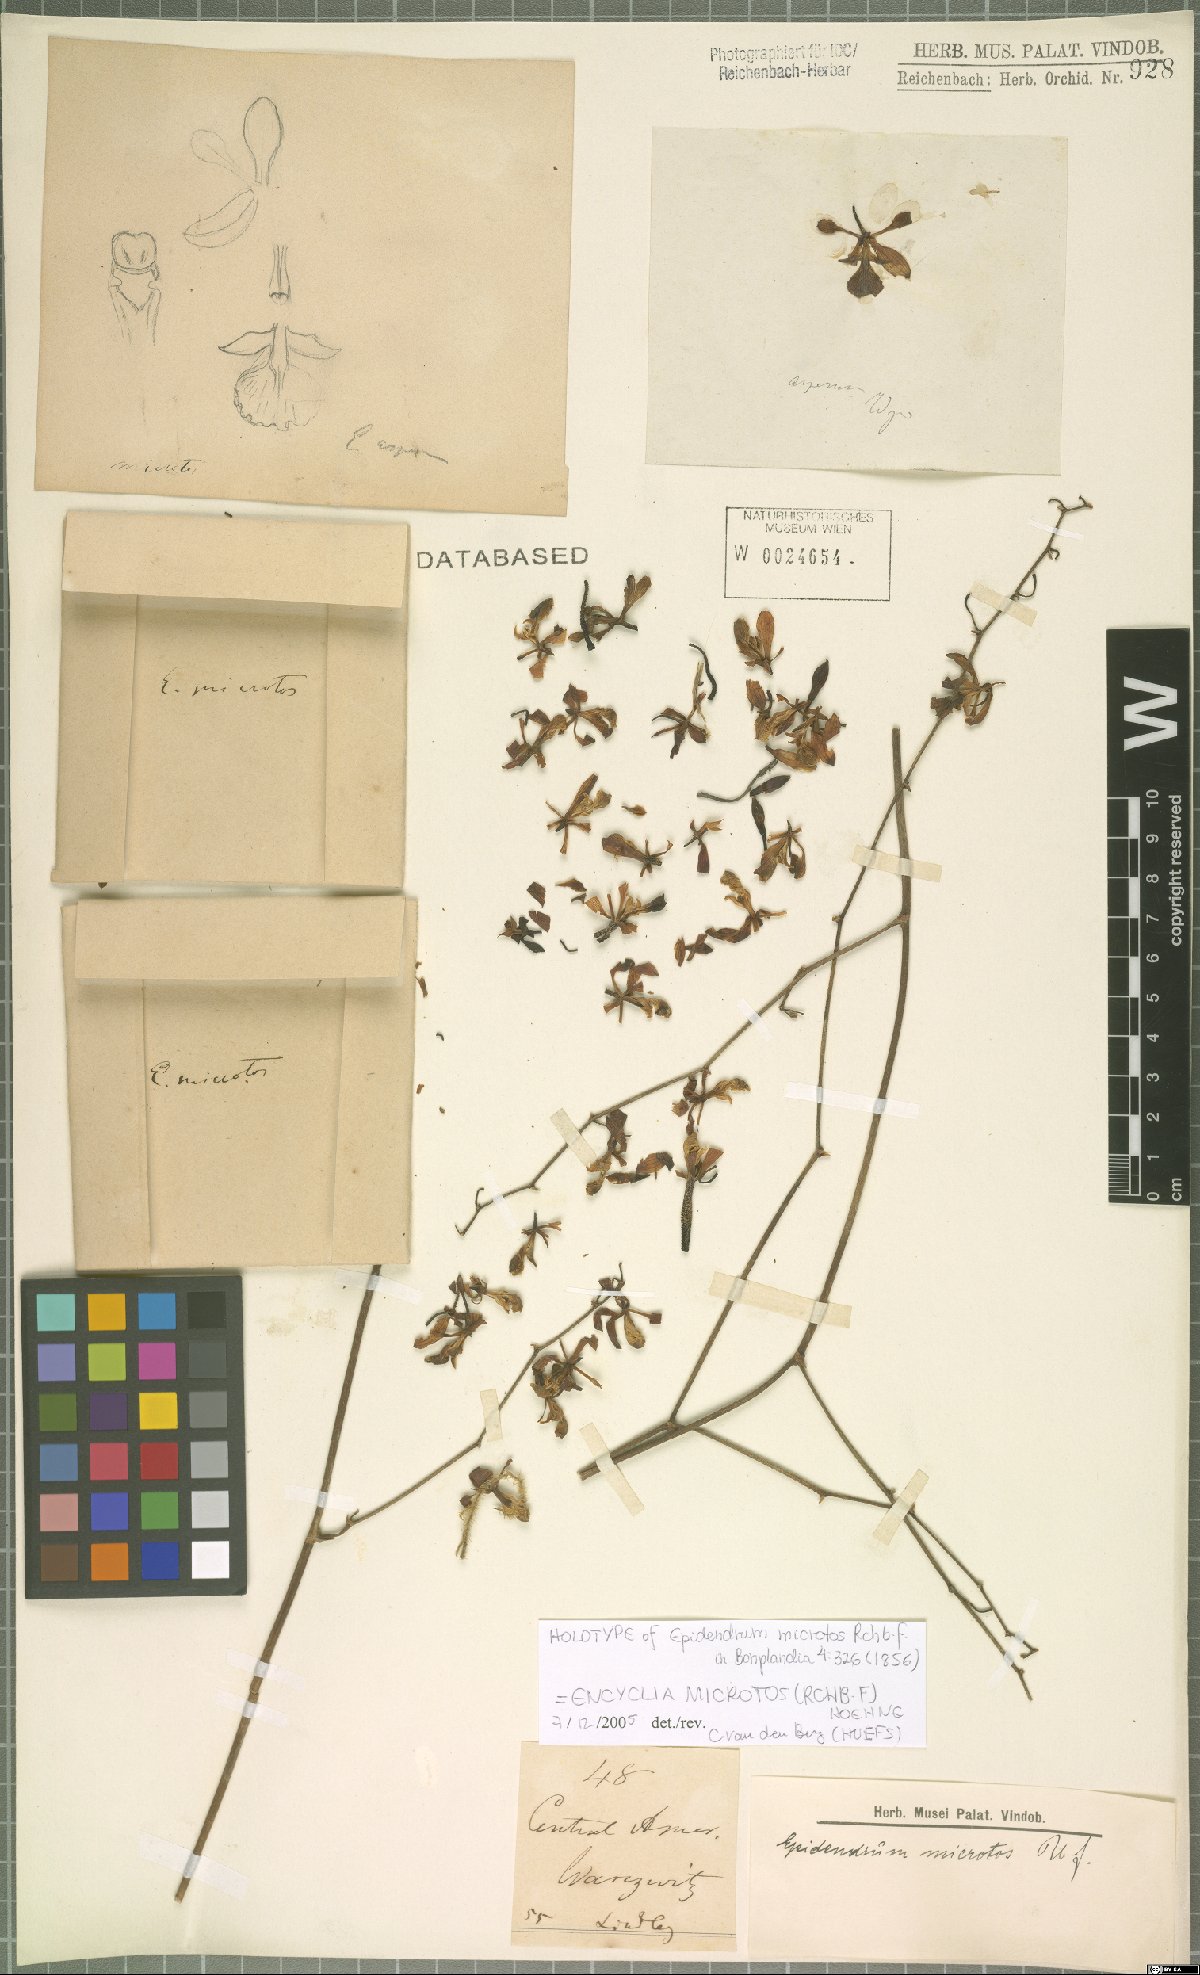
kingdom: Plantae
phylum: Tracheophyta
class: Liliopsida
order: Asparagales
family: Orchidaceae
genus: Encyclia
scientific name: Encyclia microtos
